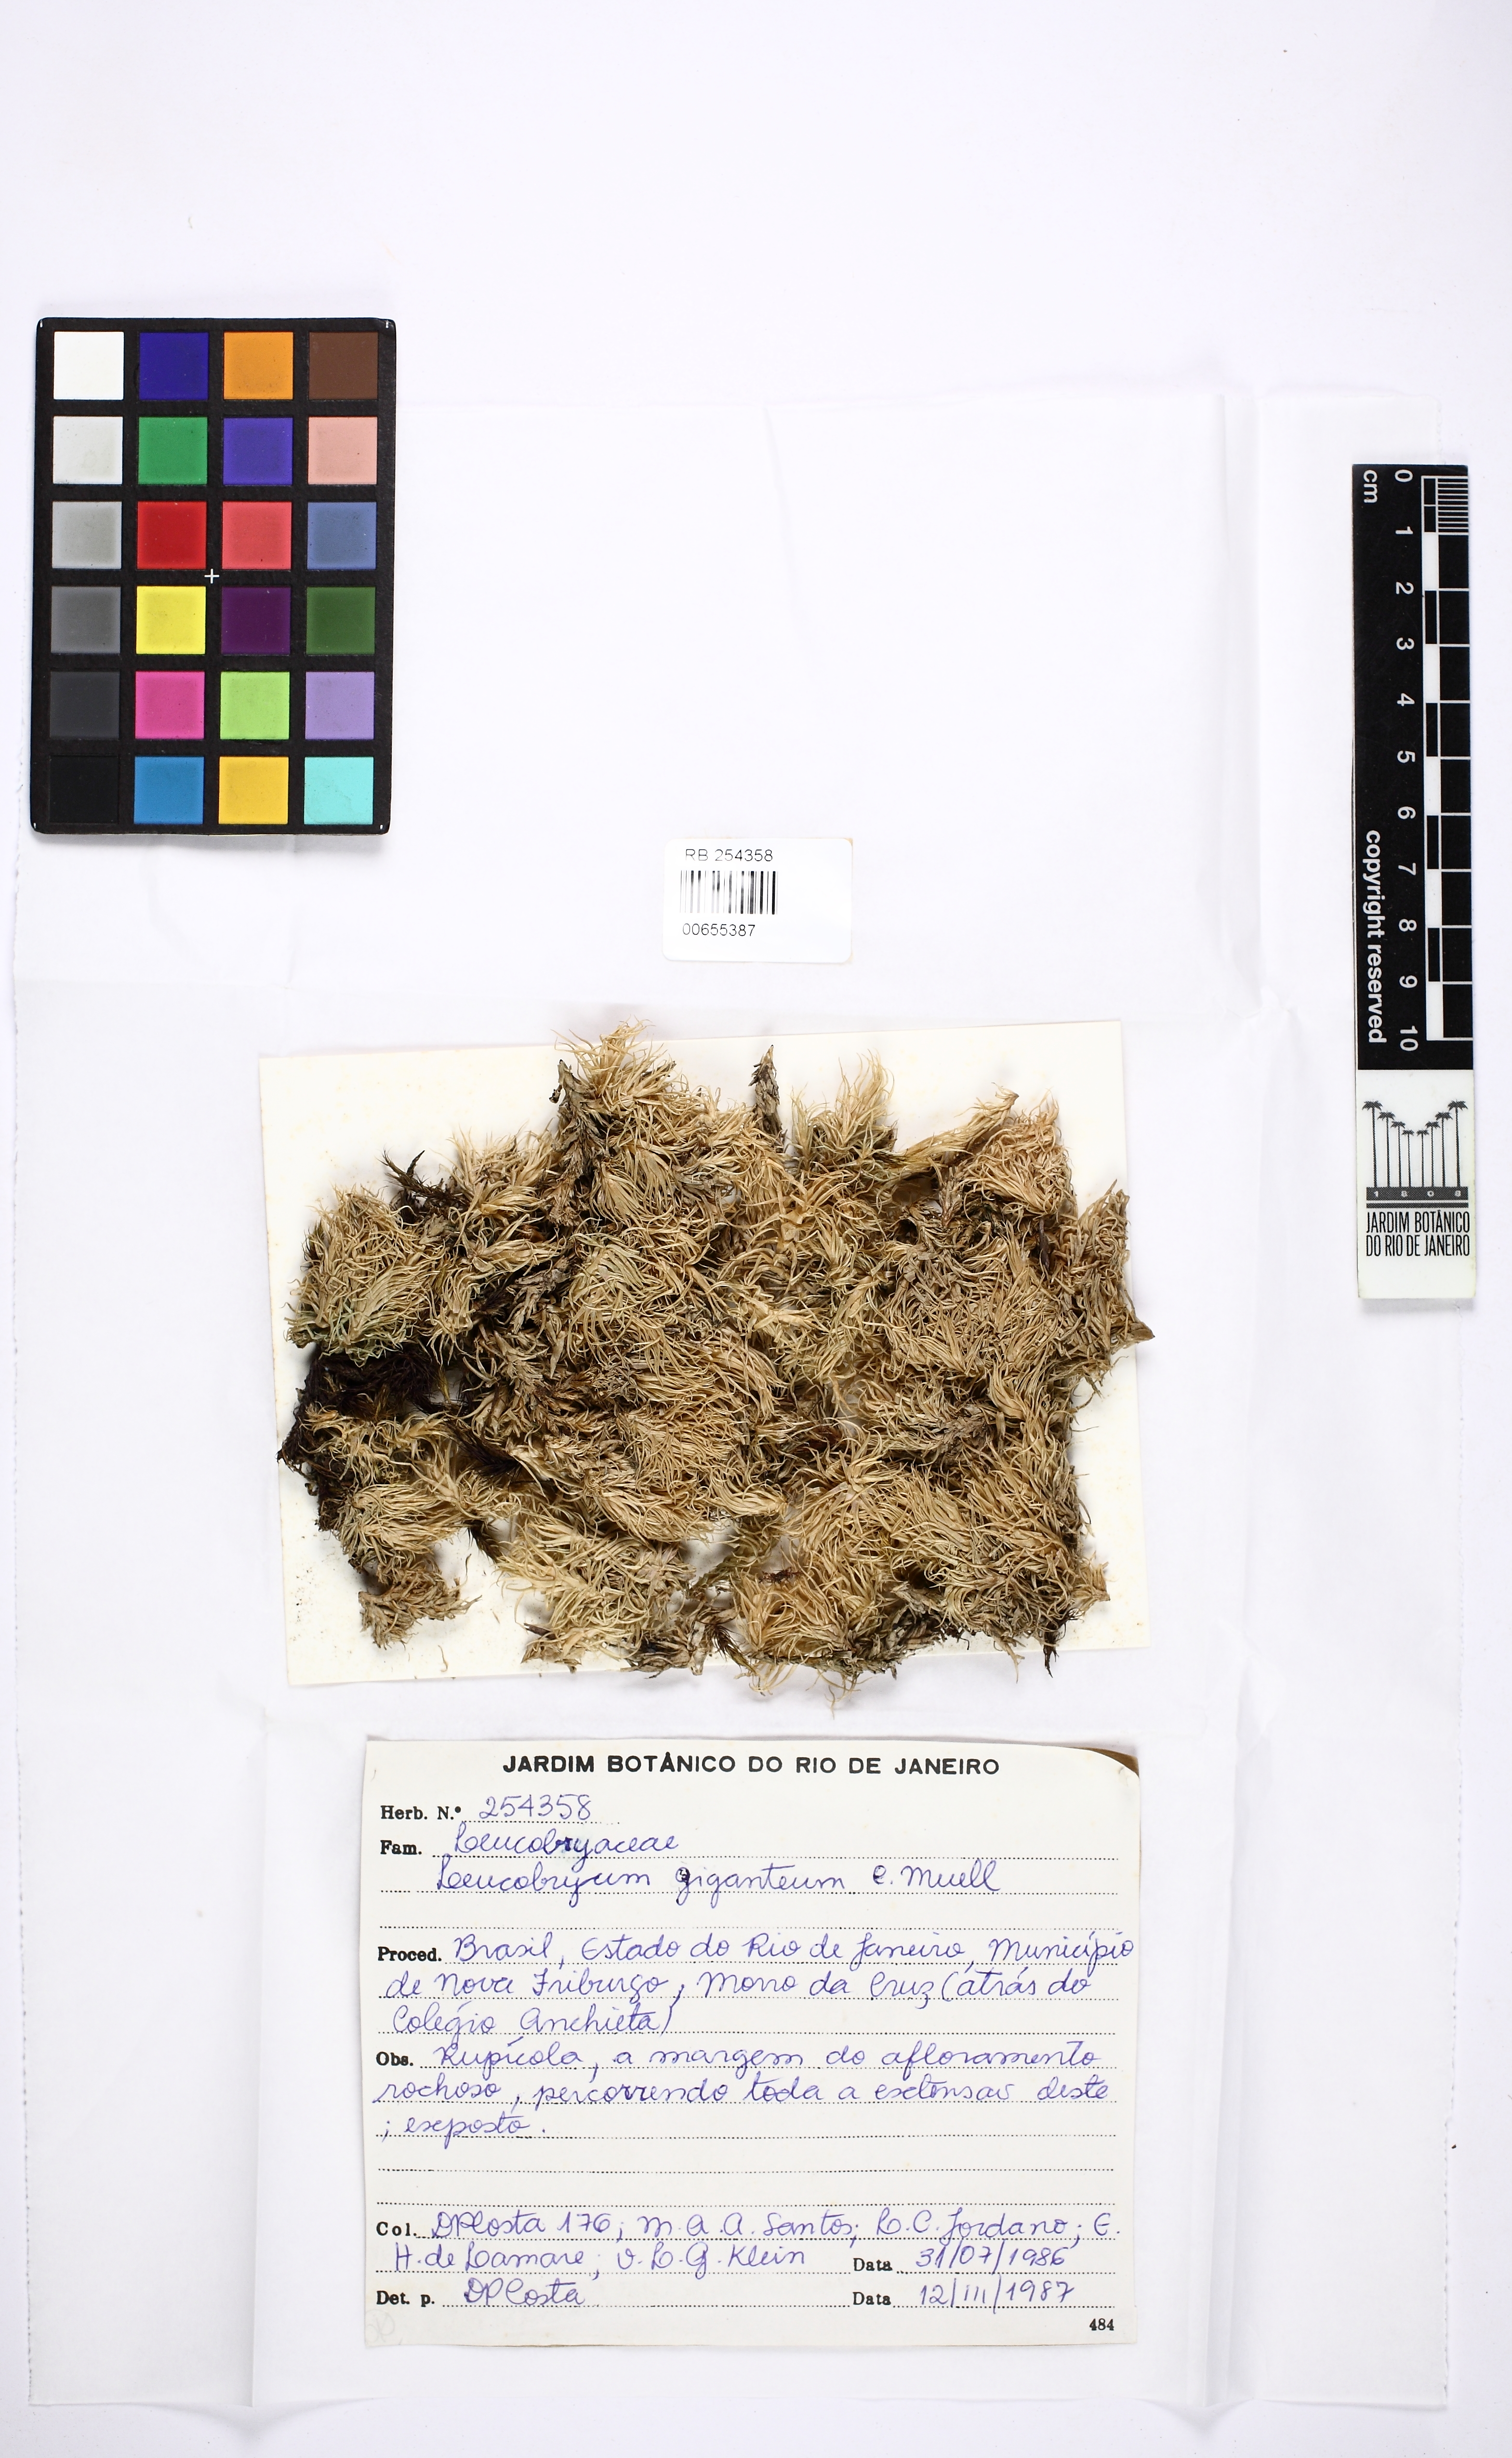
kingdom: Plantae
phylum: Bryophyta
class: Bryopsida
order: Dicranales
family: Leucobryaceae
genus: Leucobryum
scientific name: Leucobryum giganteum
